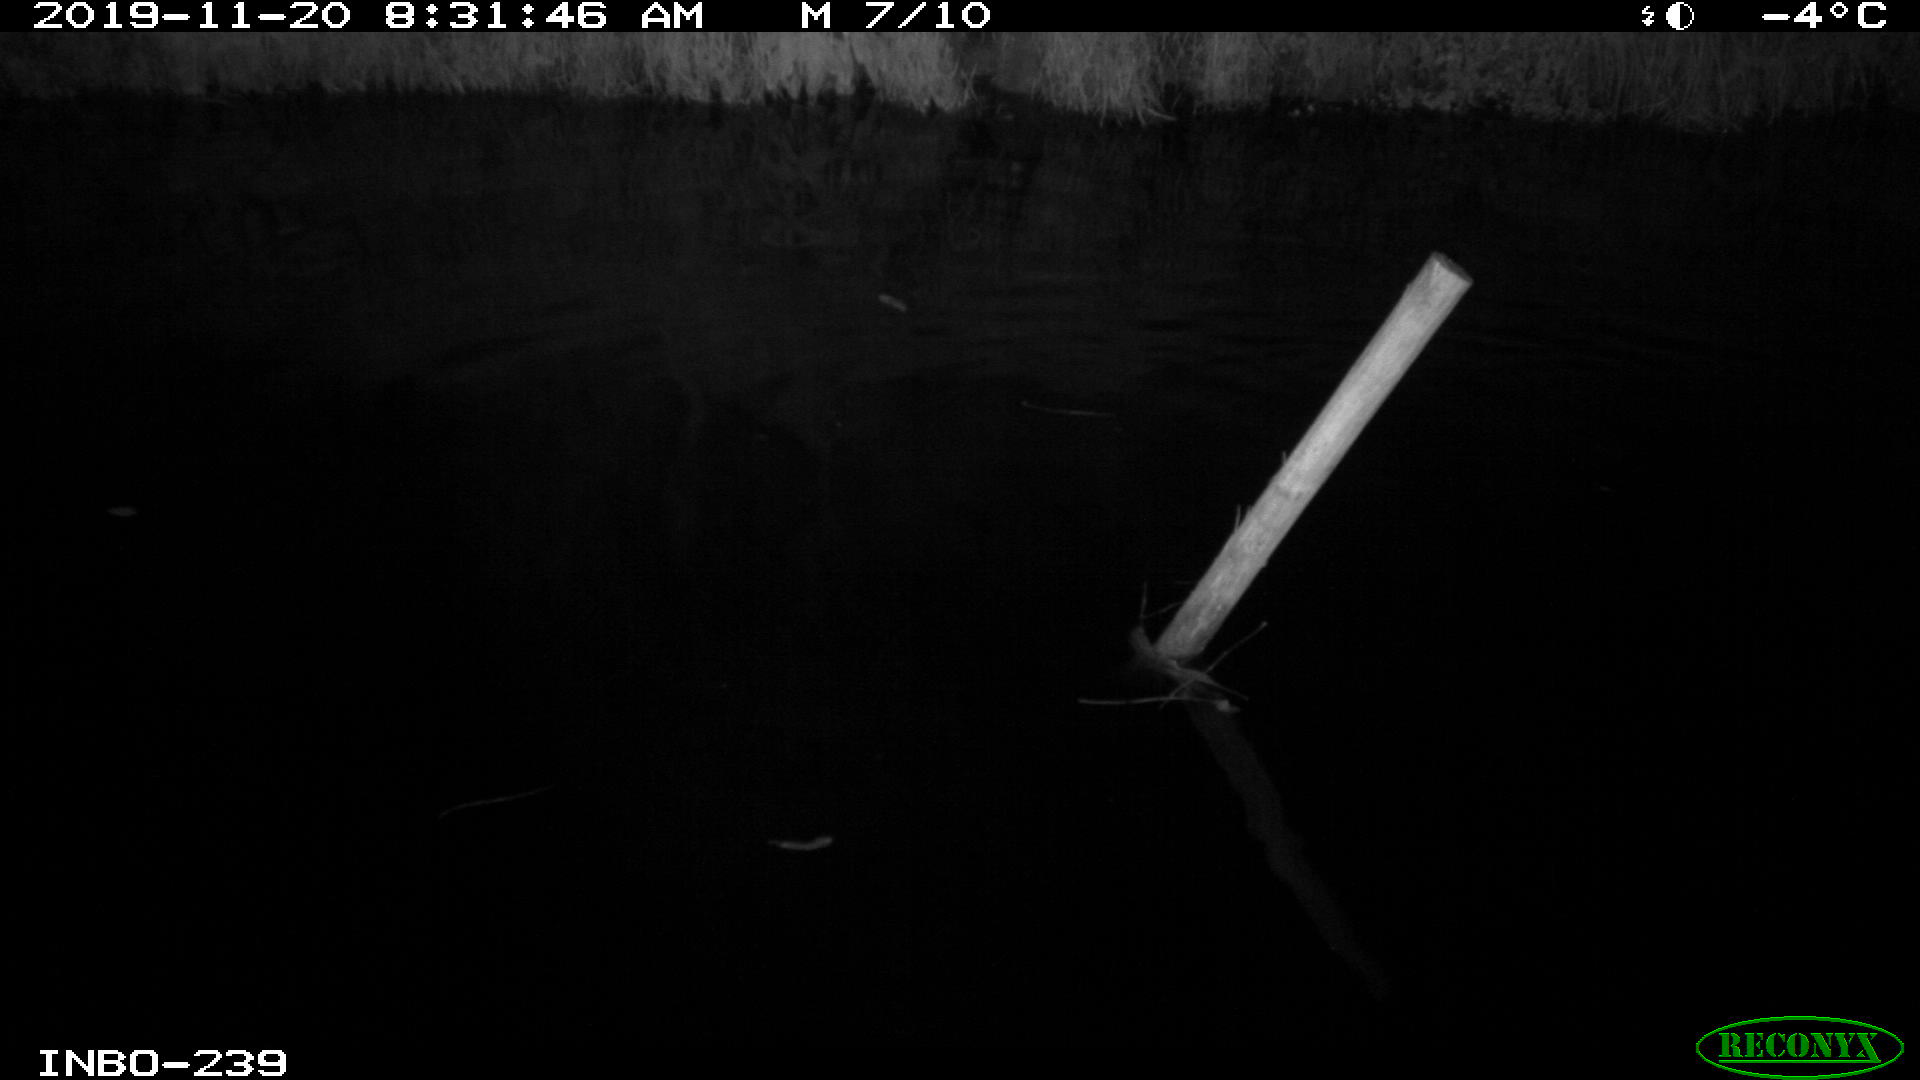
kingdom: Animalia
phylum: Chordata
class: Aves
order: Anseriformes
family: Anatidae
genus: Anas
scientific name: Anas platyrhynchos
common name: Mallard
